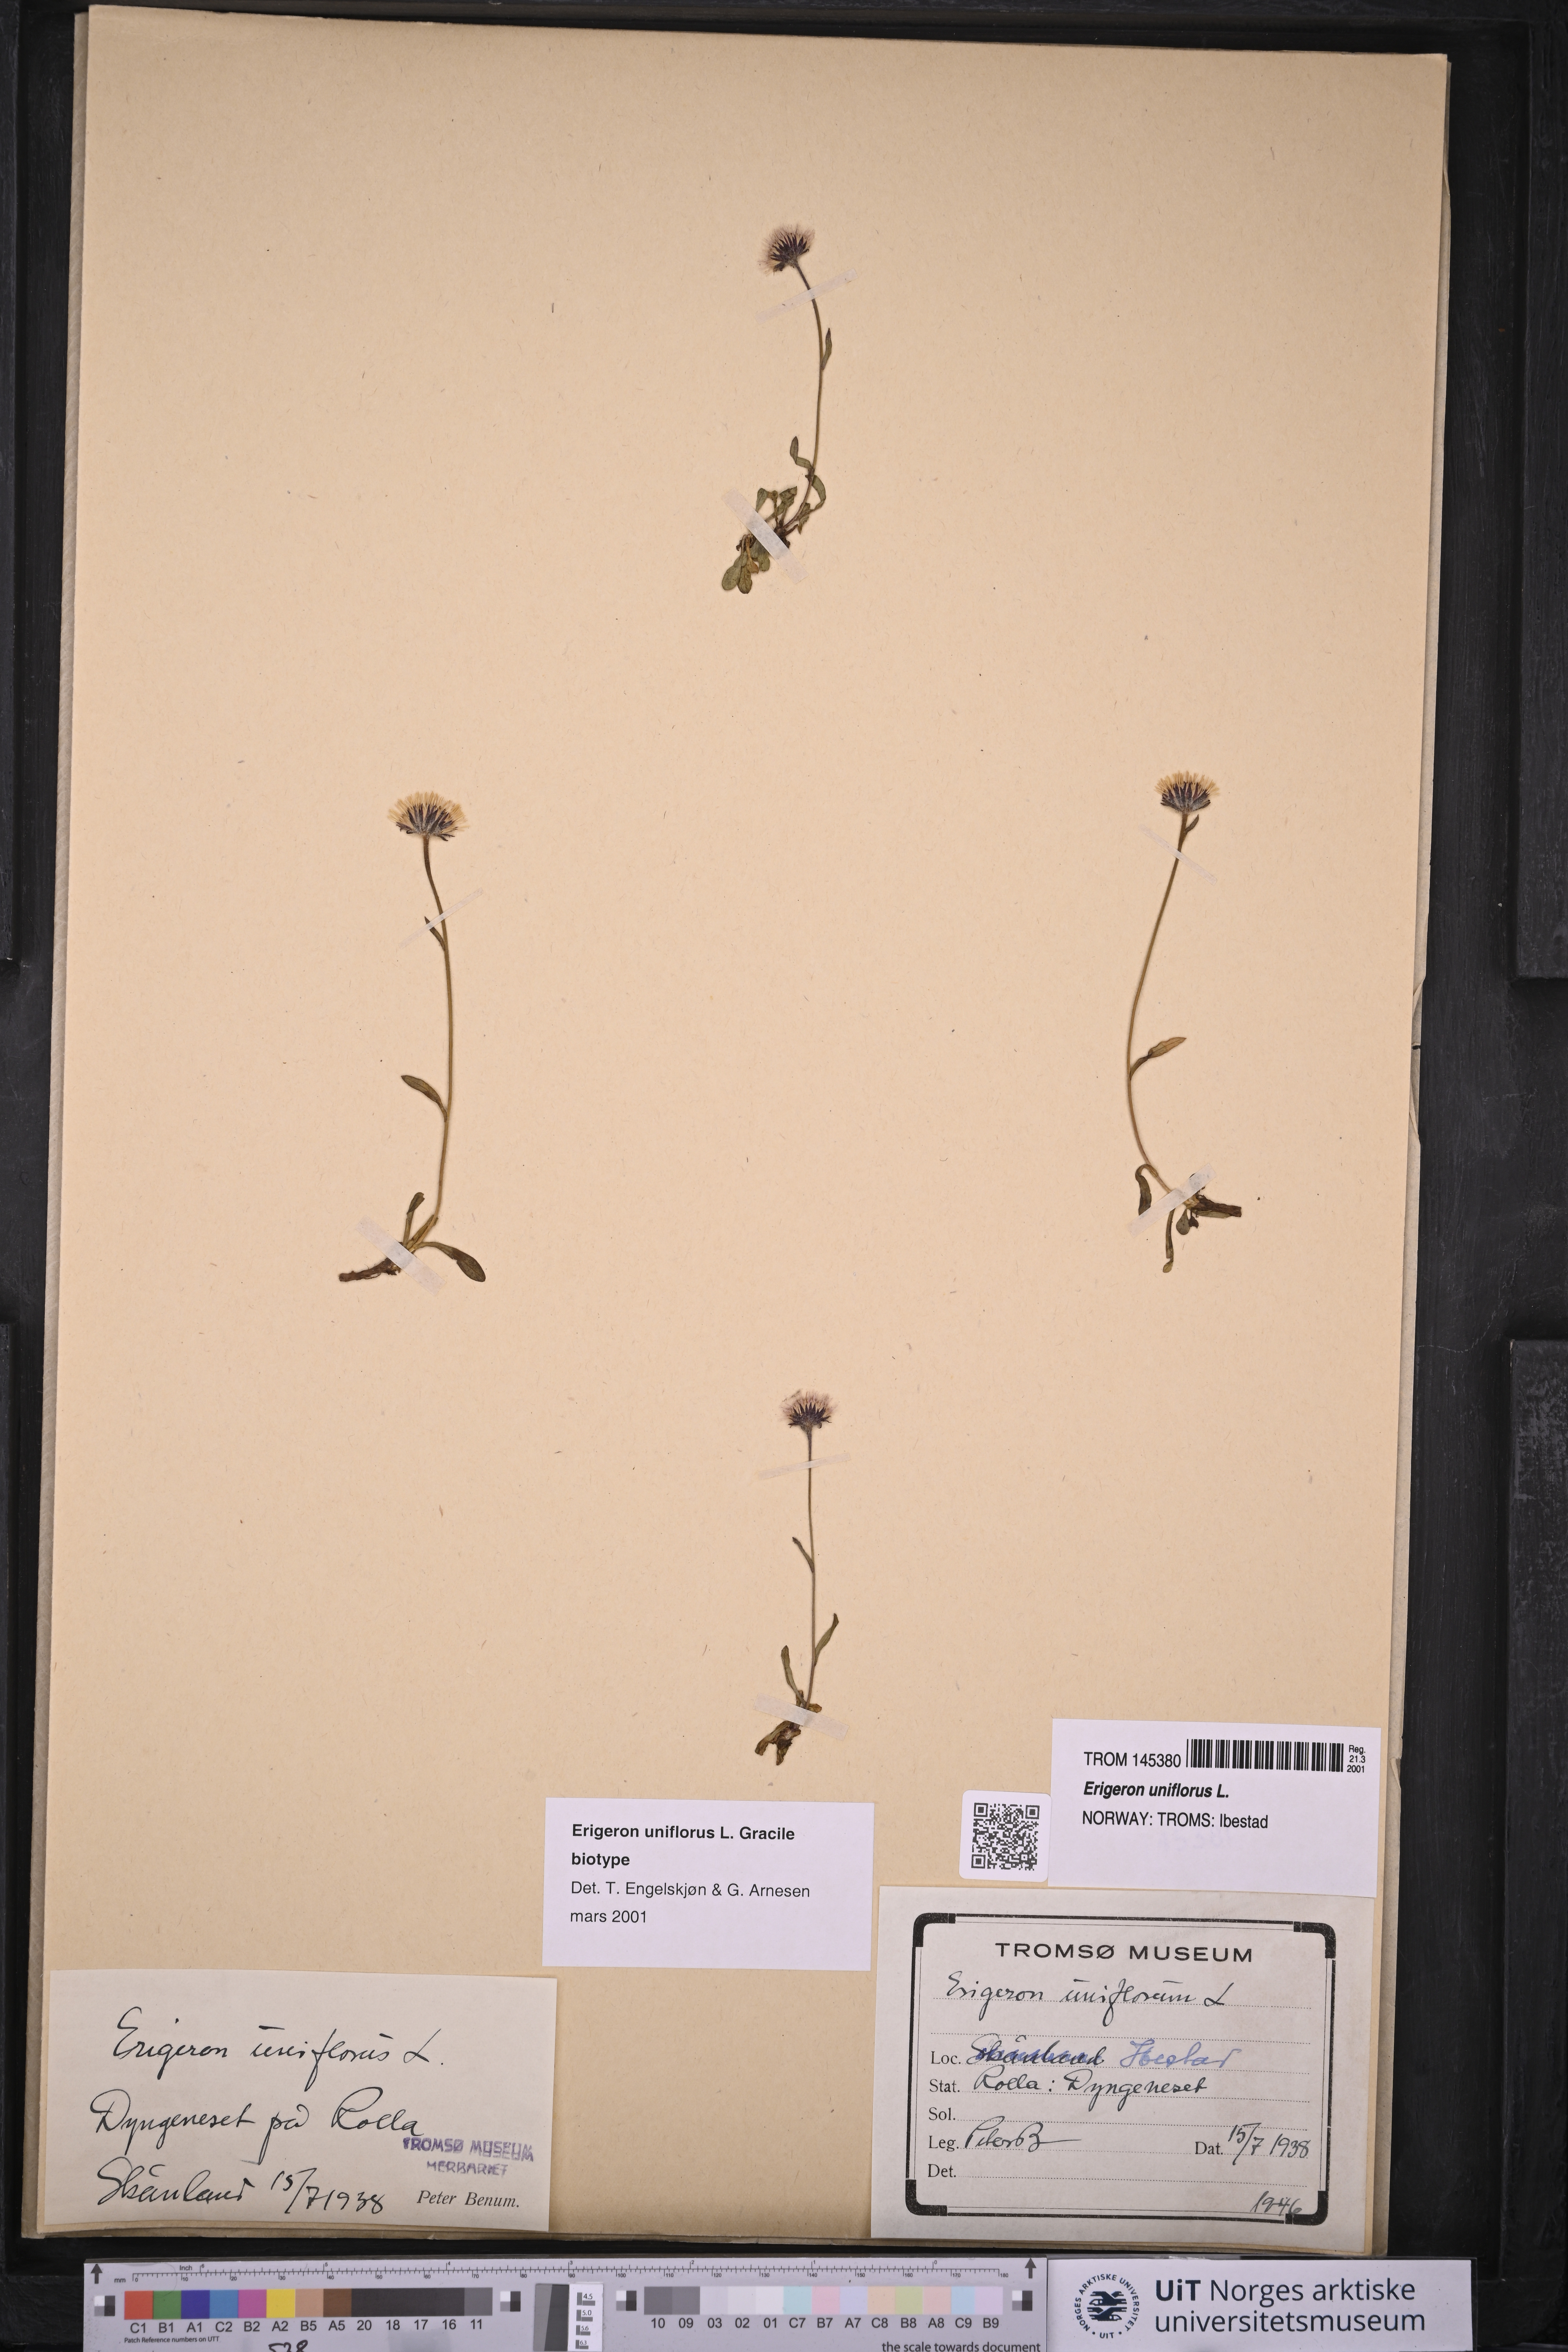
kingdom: Plantae
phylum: Tracheophyta
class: Magnoliopsida
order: Asterales
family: Asteraceae
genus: Erigeron
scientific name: Erigeron uniflorus
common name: Northern daisy
